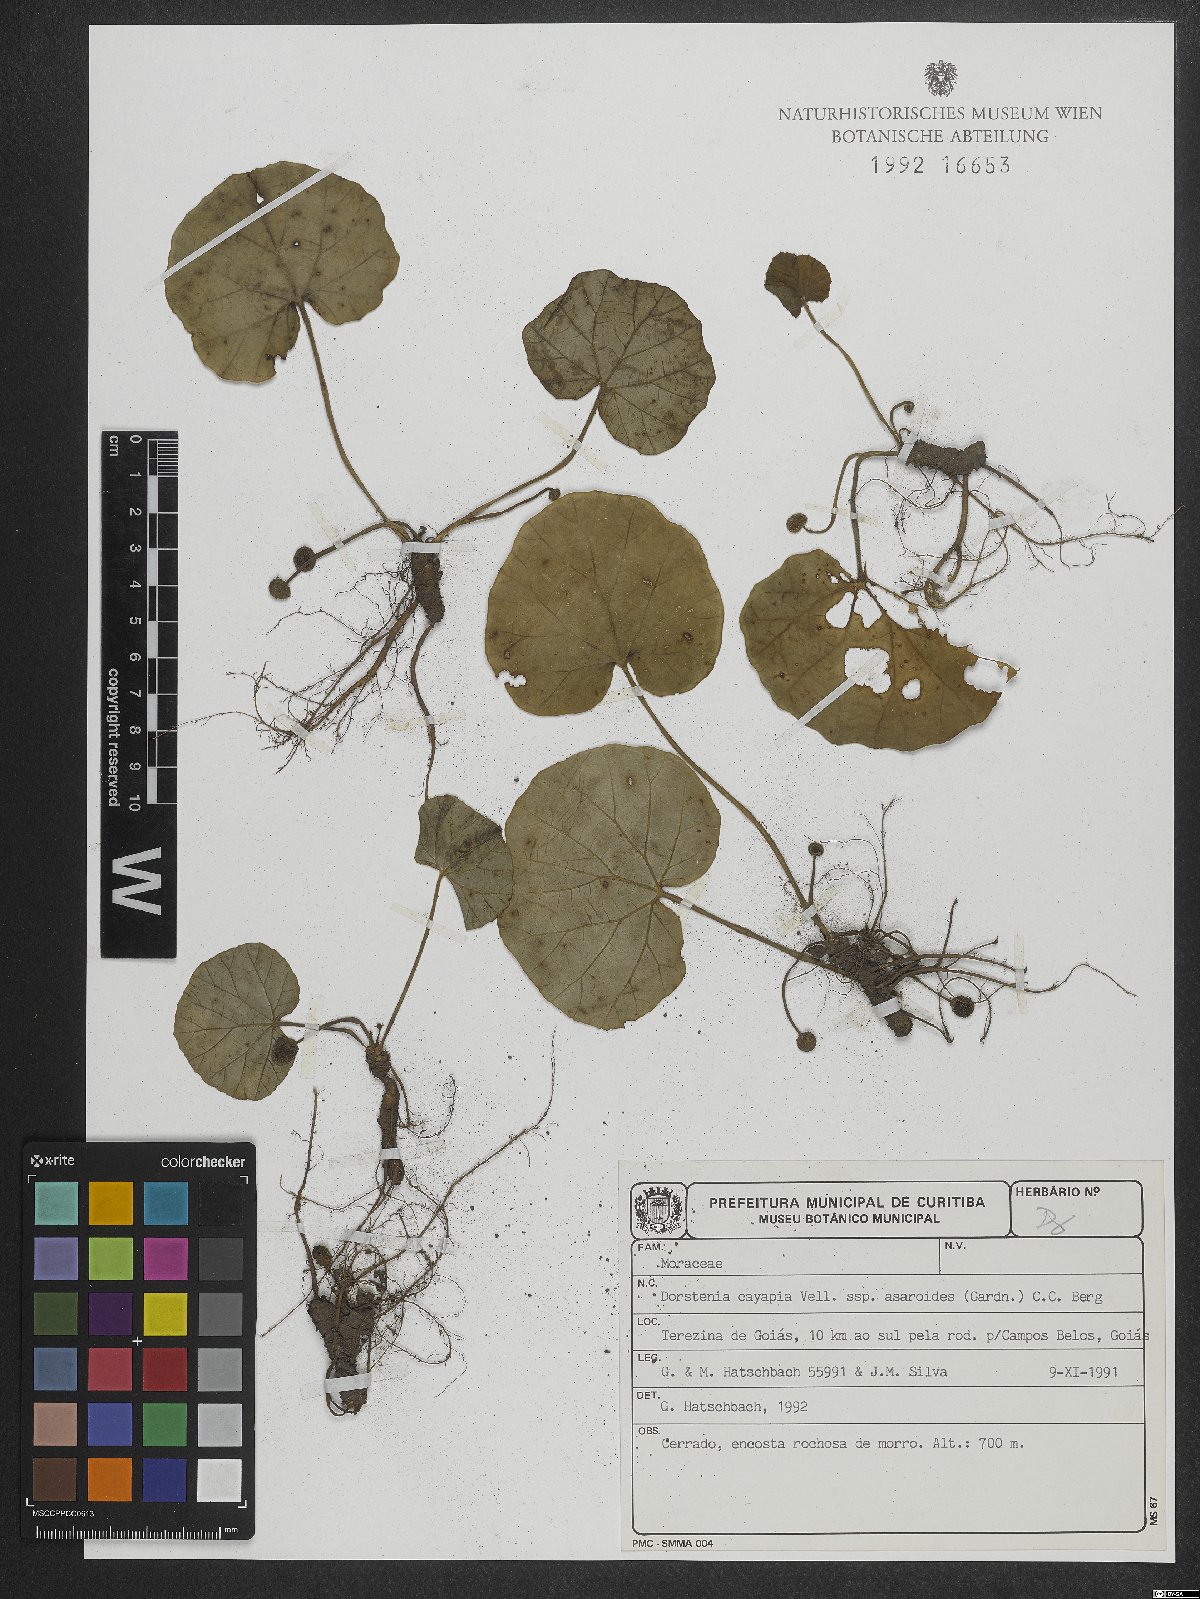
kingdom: Plantae
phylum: Tracheophyta
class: Magnoliopsida
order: Rosales
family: Moraceae
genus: Dorstenia
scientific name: Dorstenia cayapia
